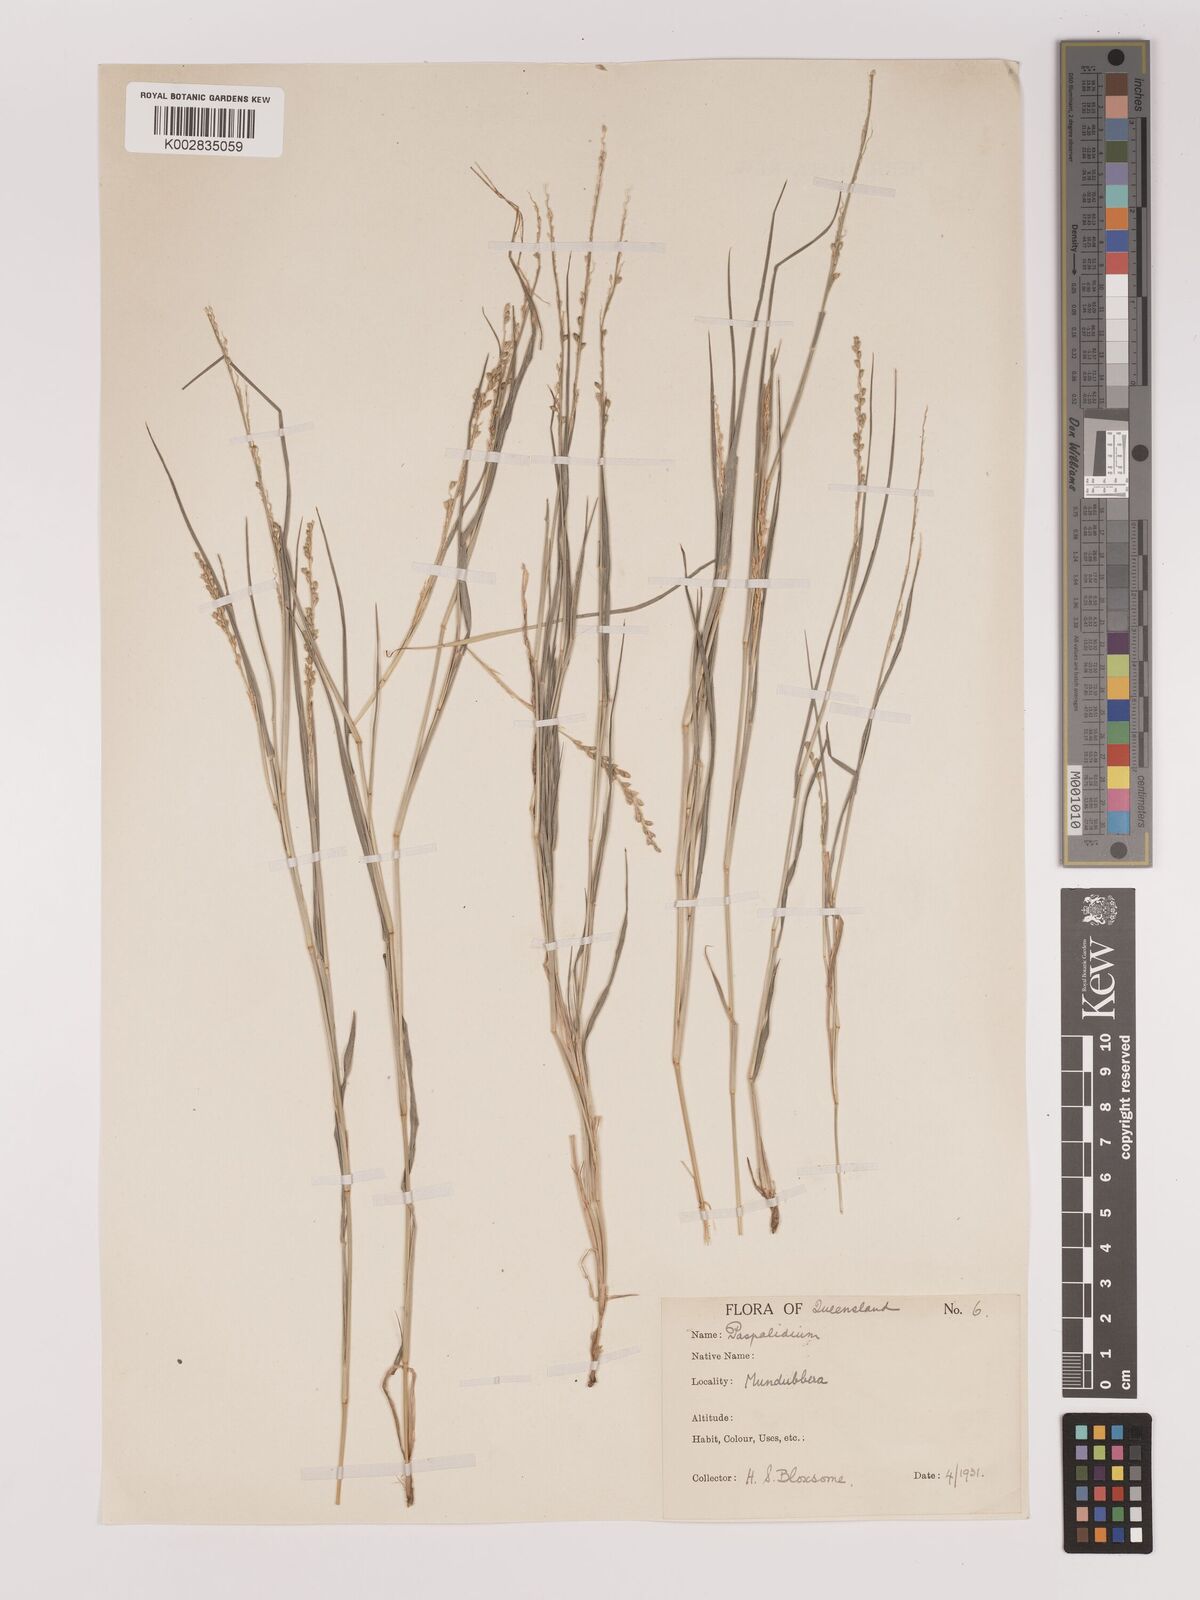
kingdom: Plantae
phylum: Tracheophyta
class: Liliopsida
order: Poales
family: Poaceae
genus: Setaria
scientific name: Setaria
